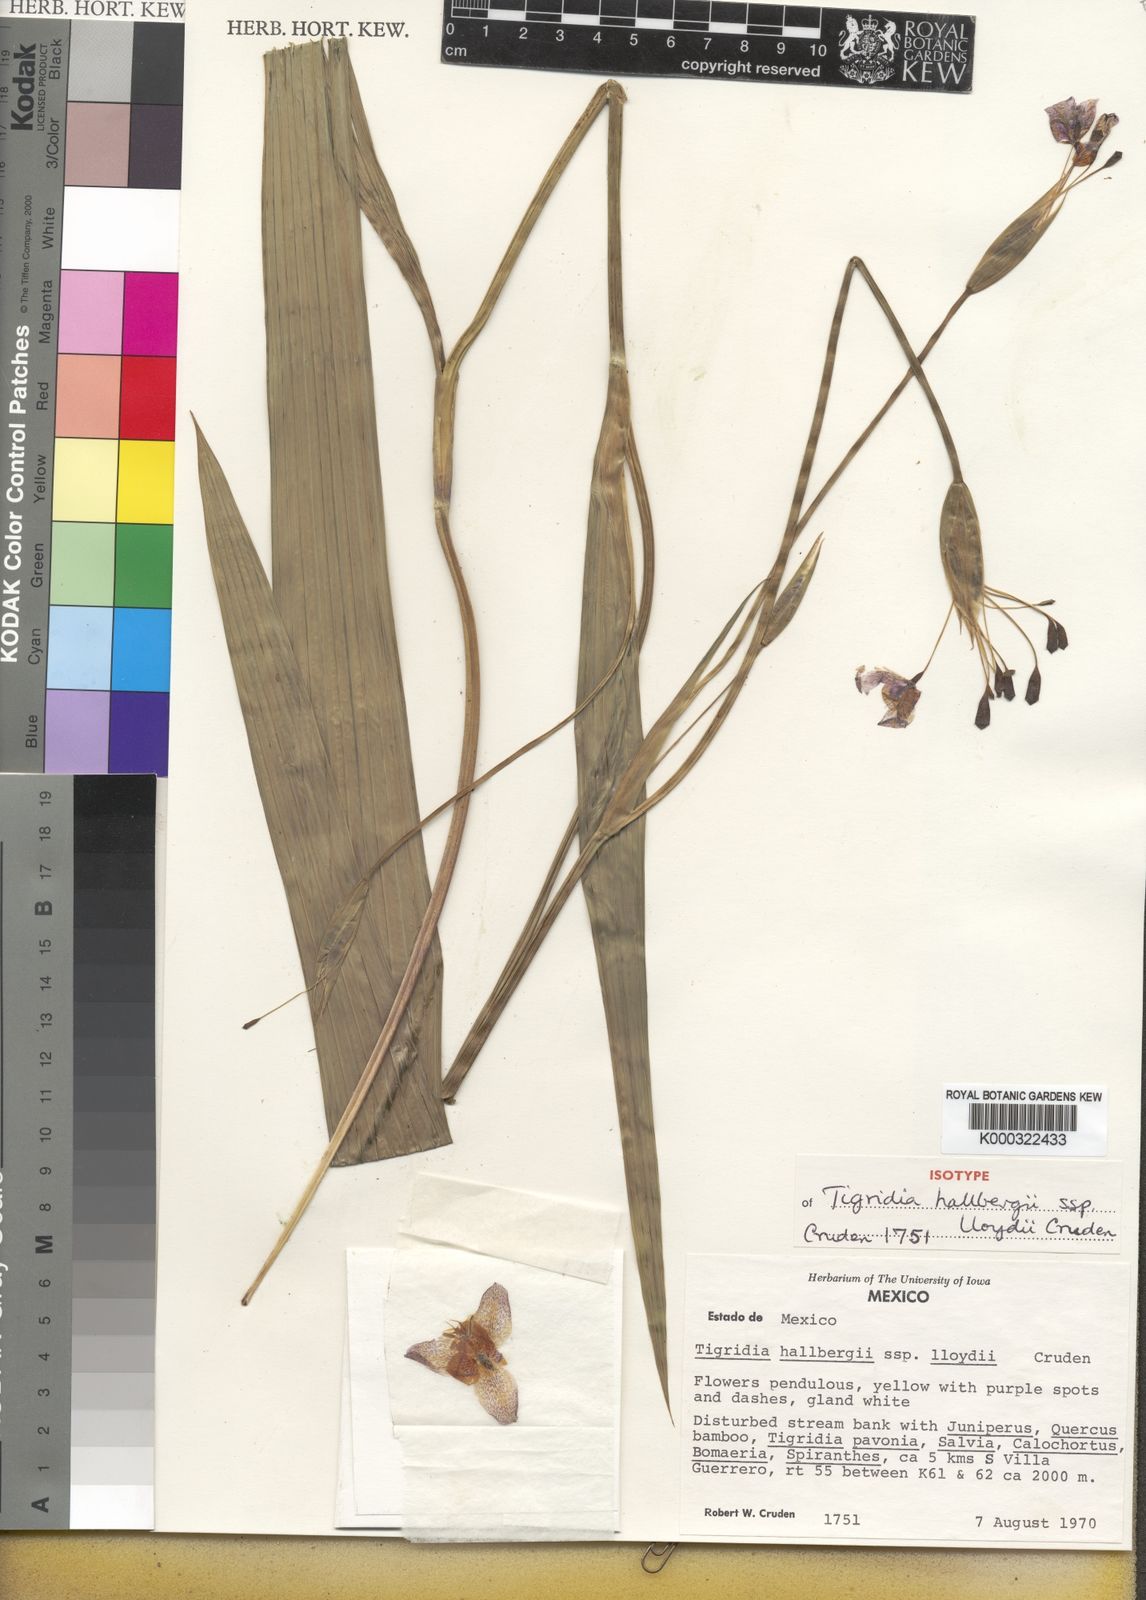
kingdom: Plantae
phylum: Tracheophyta
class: Liliopsida
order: Asparagales
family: Iridaceae
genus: Tigridia
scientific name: Tigridia hallbergii
